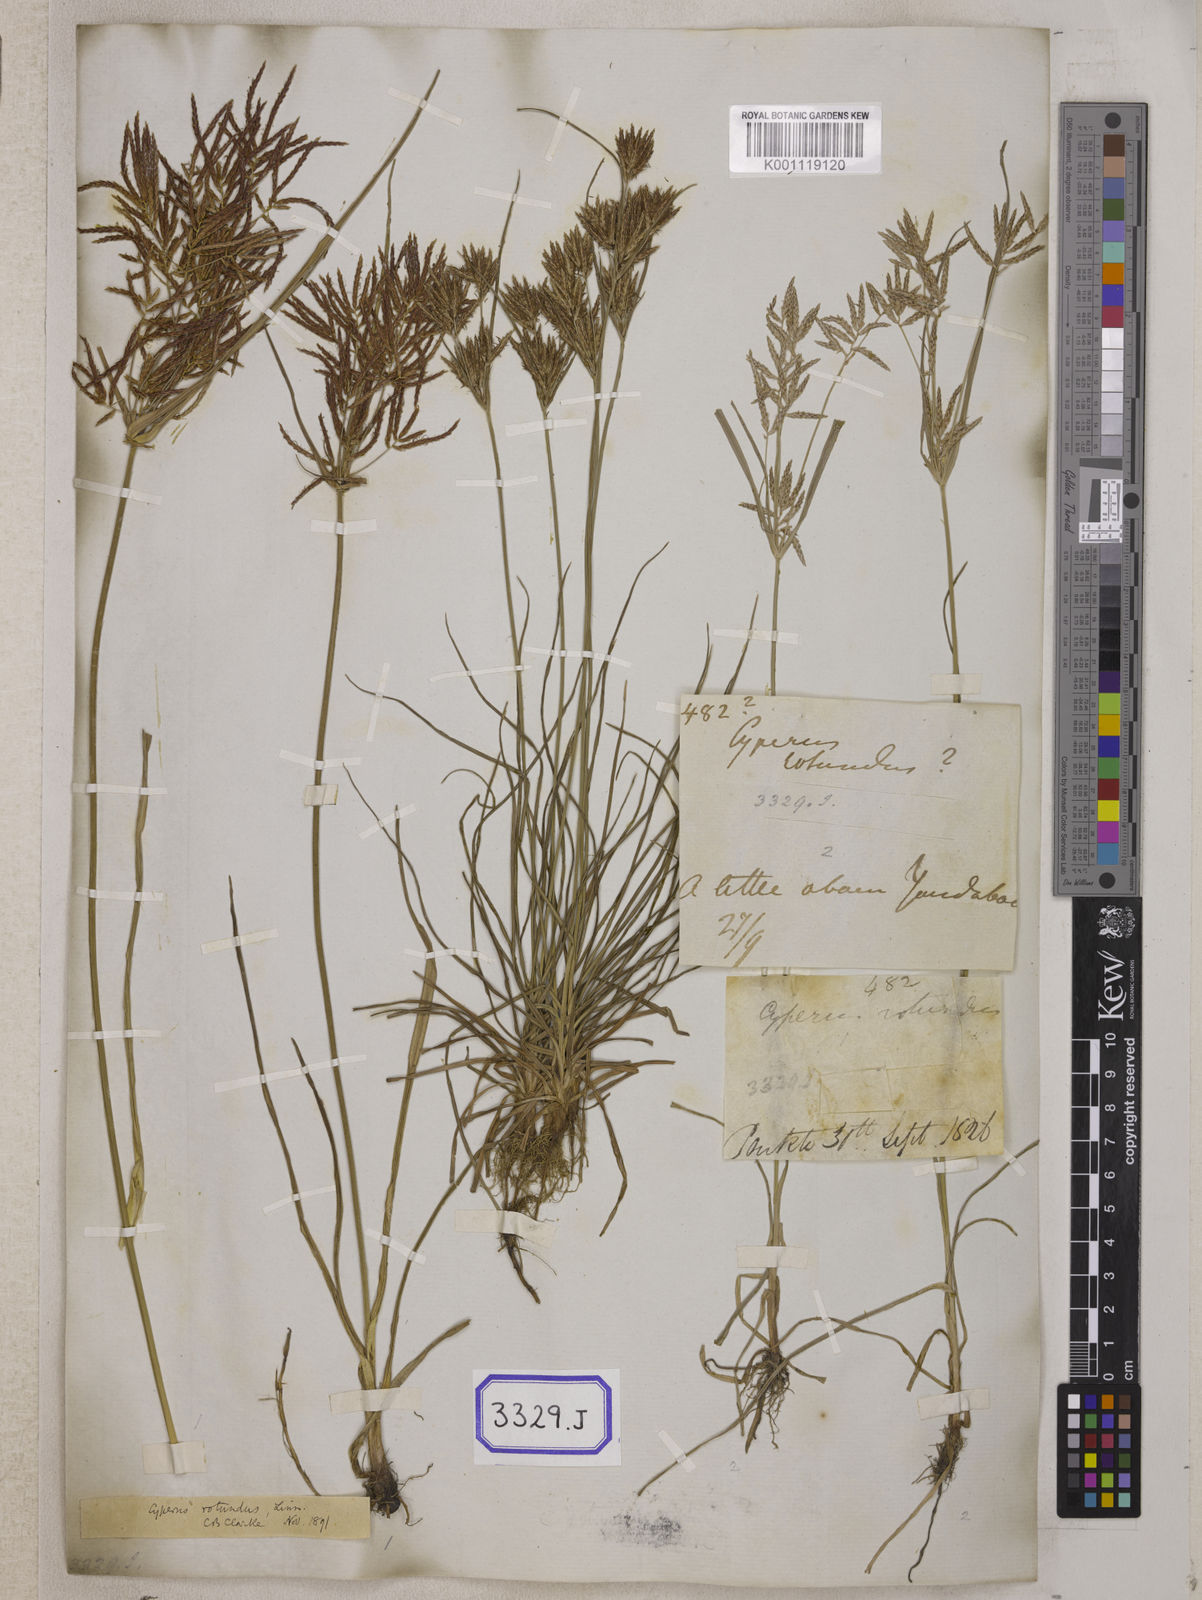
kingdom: Plantae
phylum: Tracheophyta
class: Liliopsida
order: Poales
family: Cyperaceae
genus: Cyperus
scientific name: Cyperus
